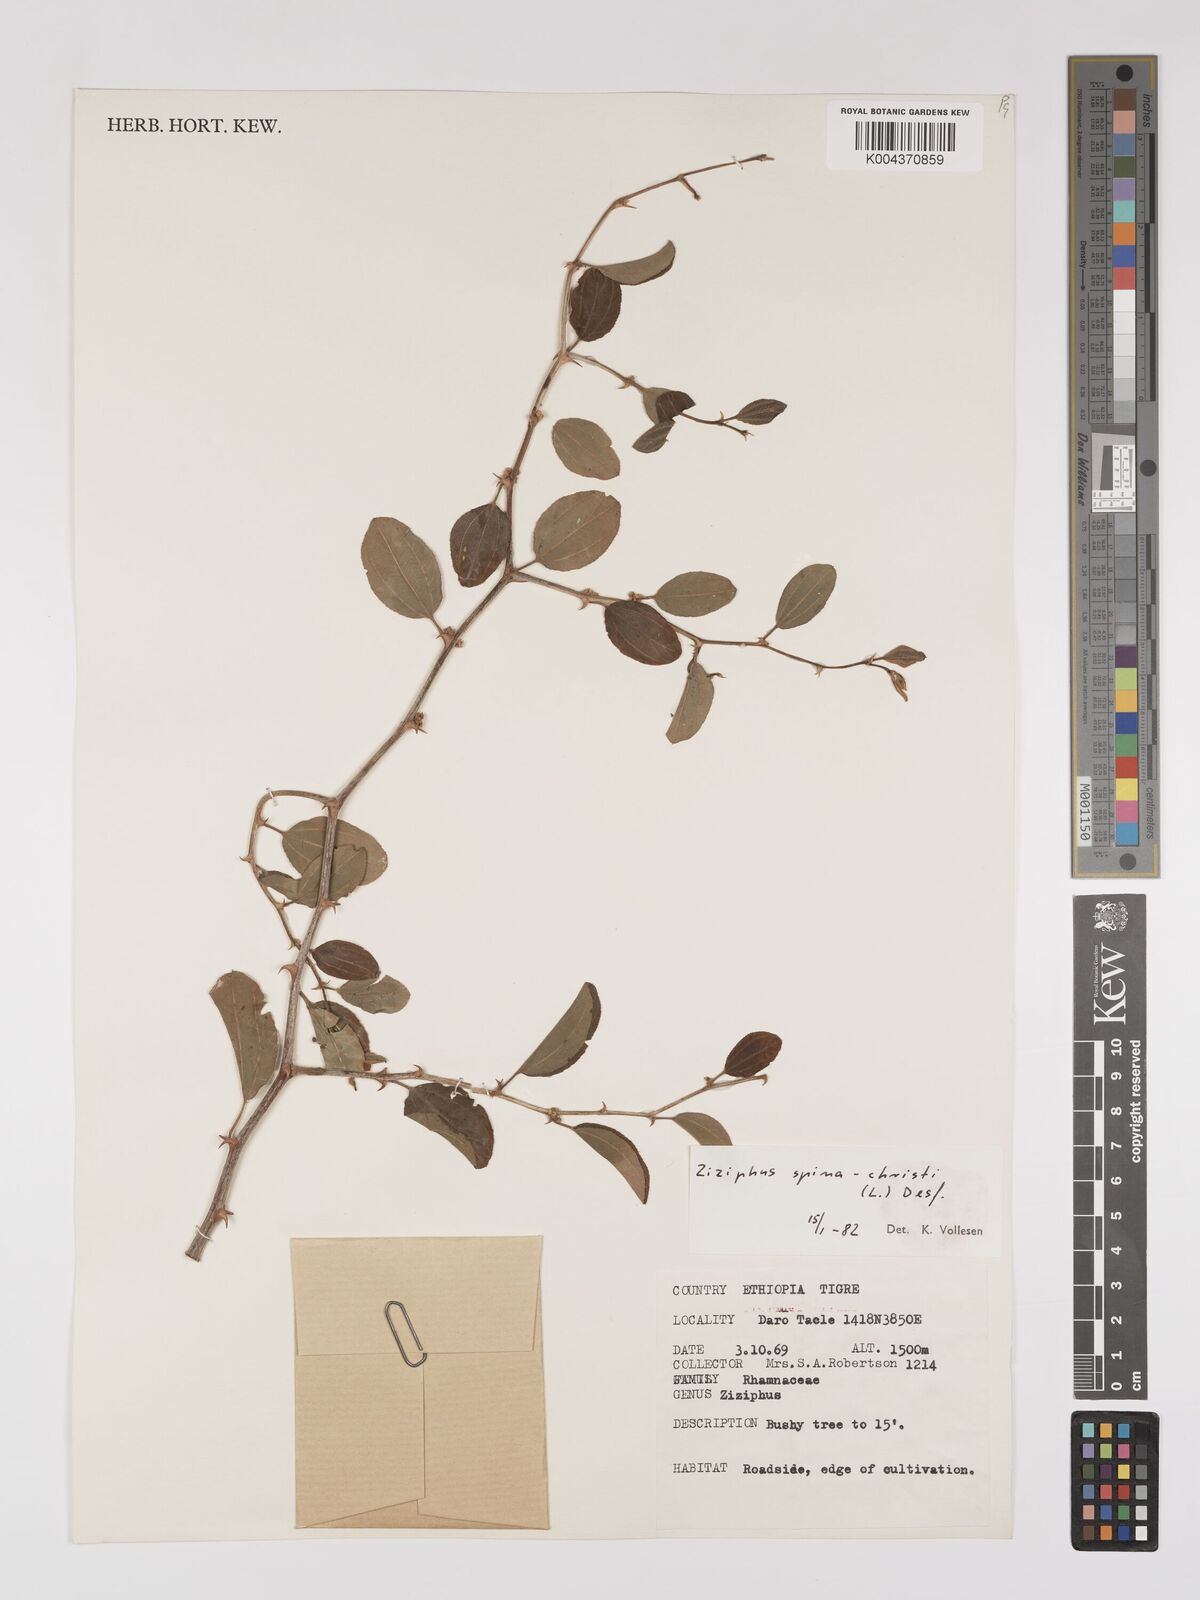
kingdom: Plantae
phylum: Tracheophyta
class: Magnoliopsida
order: Rosales
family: Rhamnaceae
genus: Ziziphus
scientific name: Ziziphus spina-christi
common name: Syrian christ-thorn
